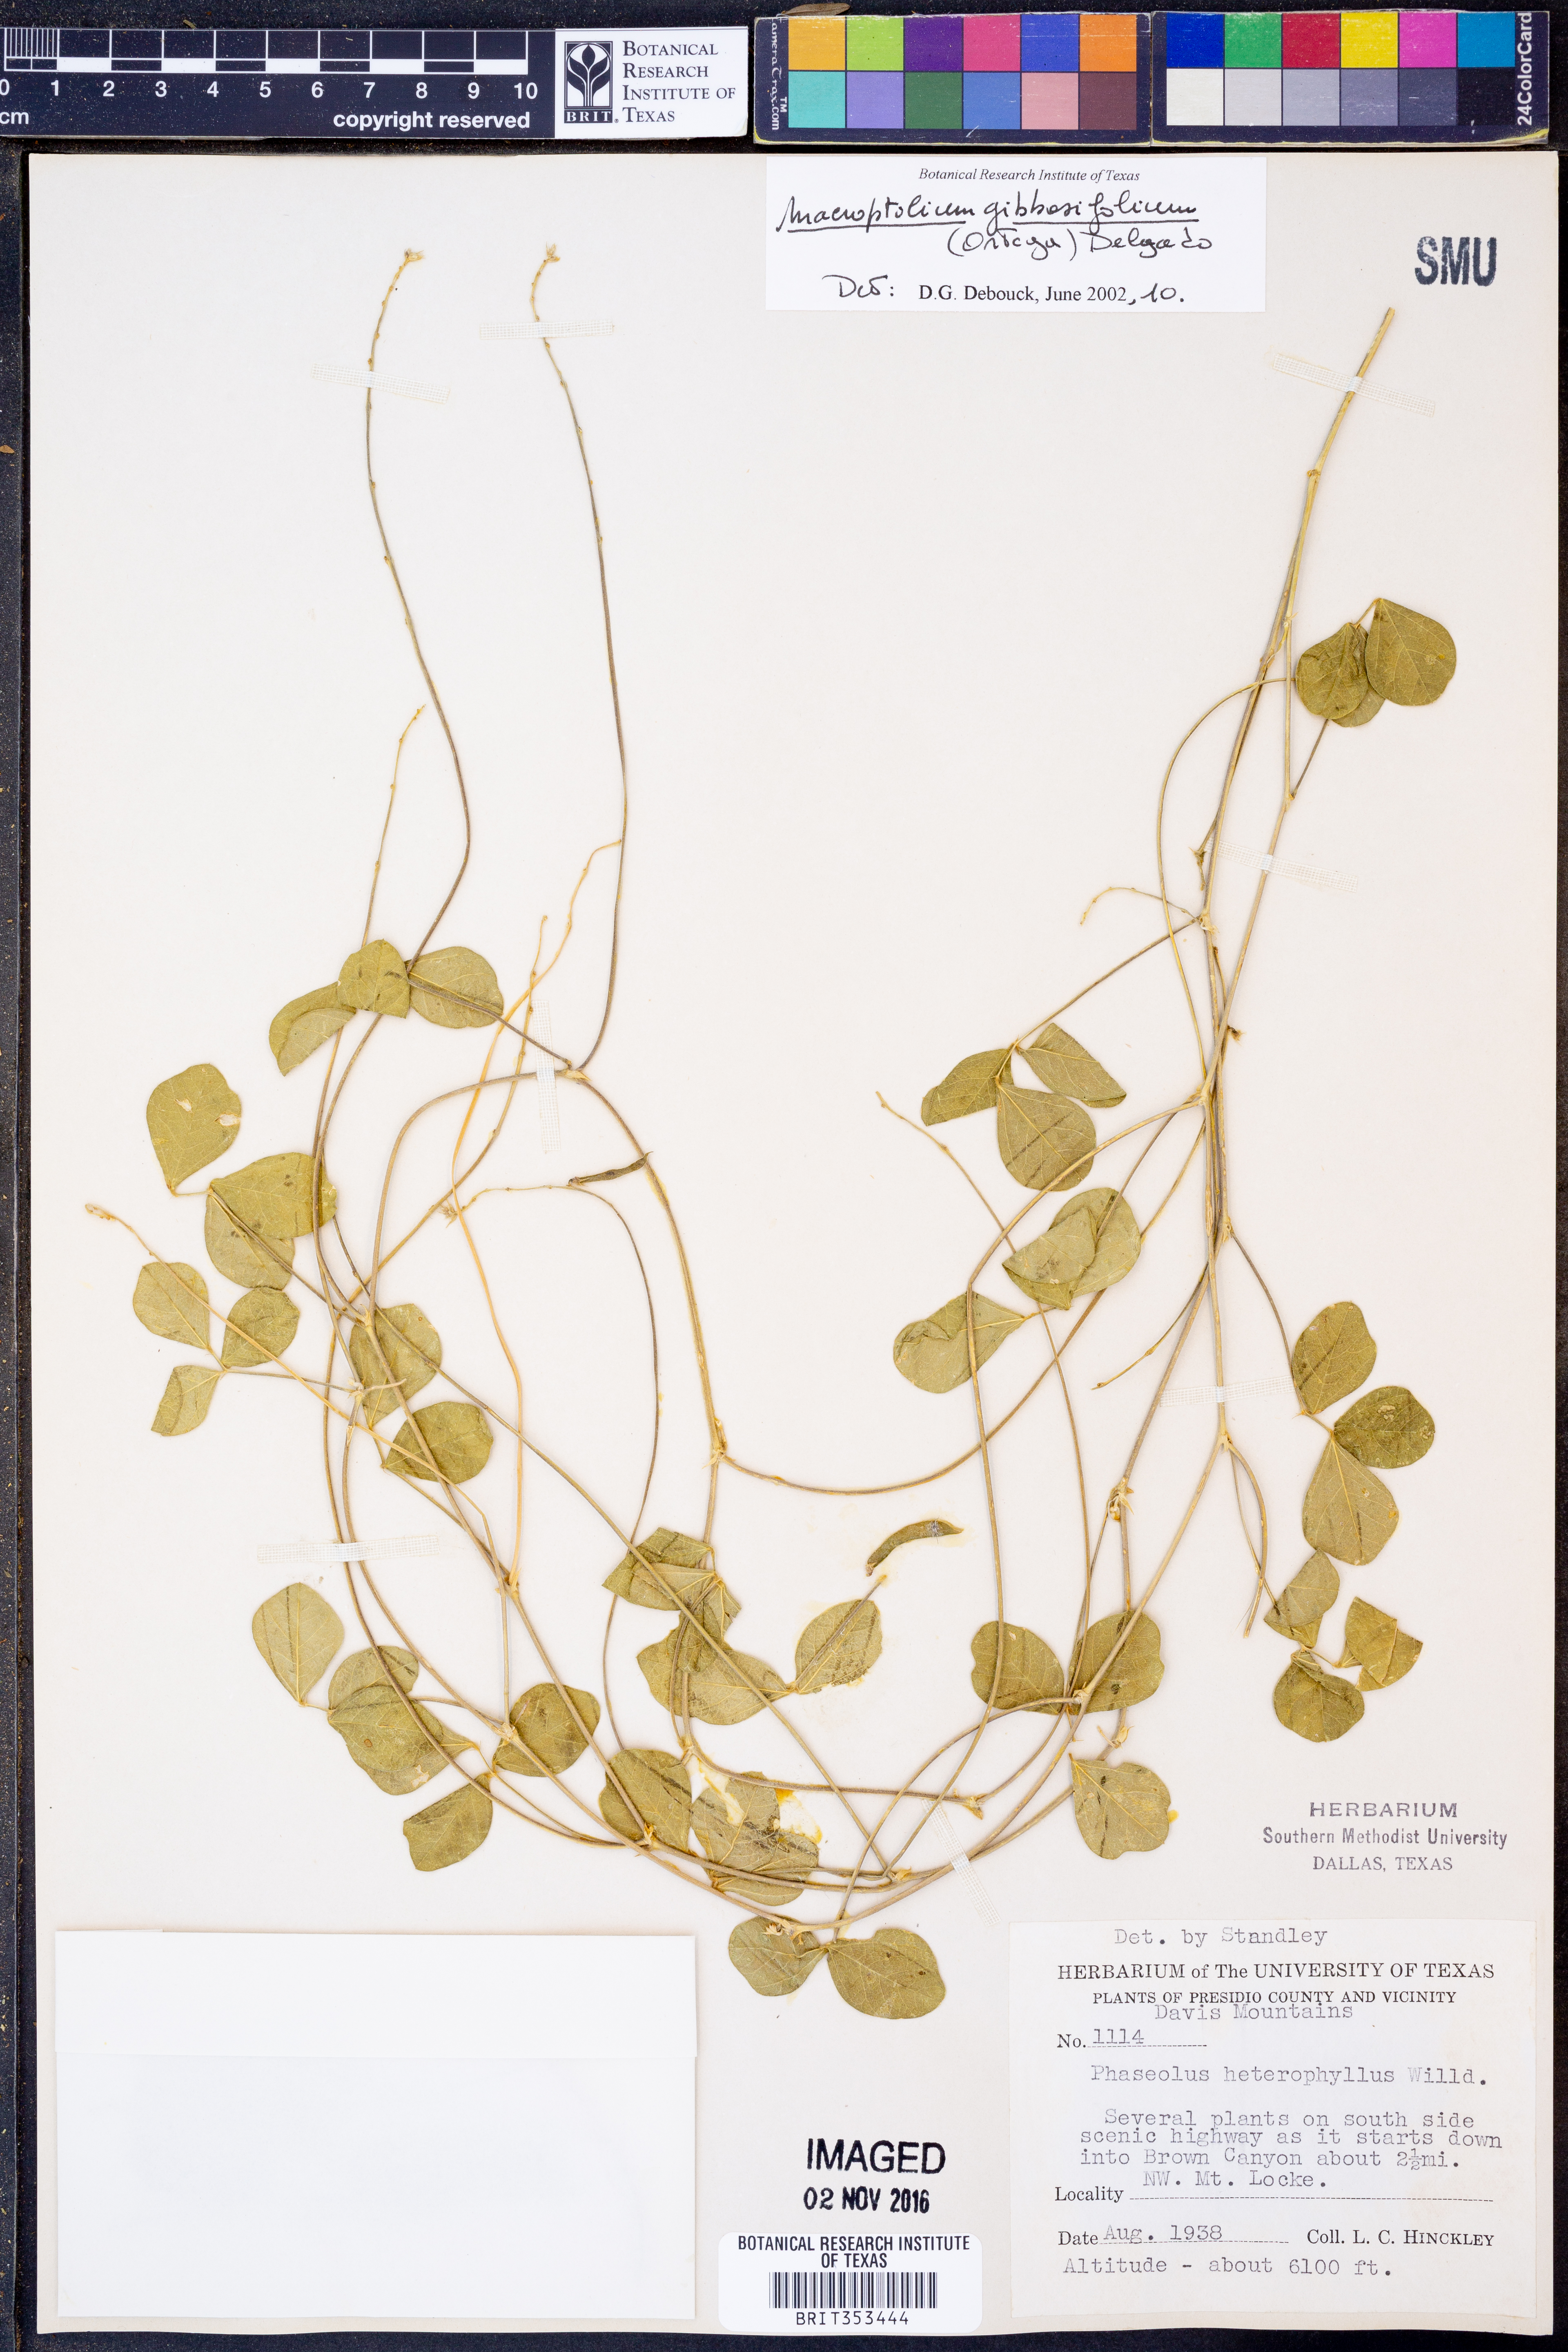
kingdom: Plantae
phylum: Tracheophyta
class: Magnoliopsida
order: Fabales
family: Fabaceae
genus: Macroptilium
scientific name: Macroptilium gibbosifolium
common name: Variableleaf bushbean
